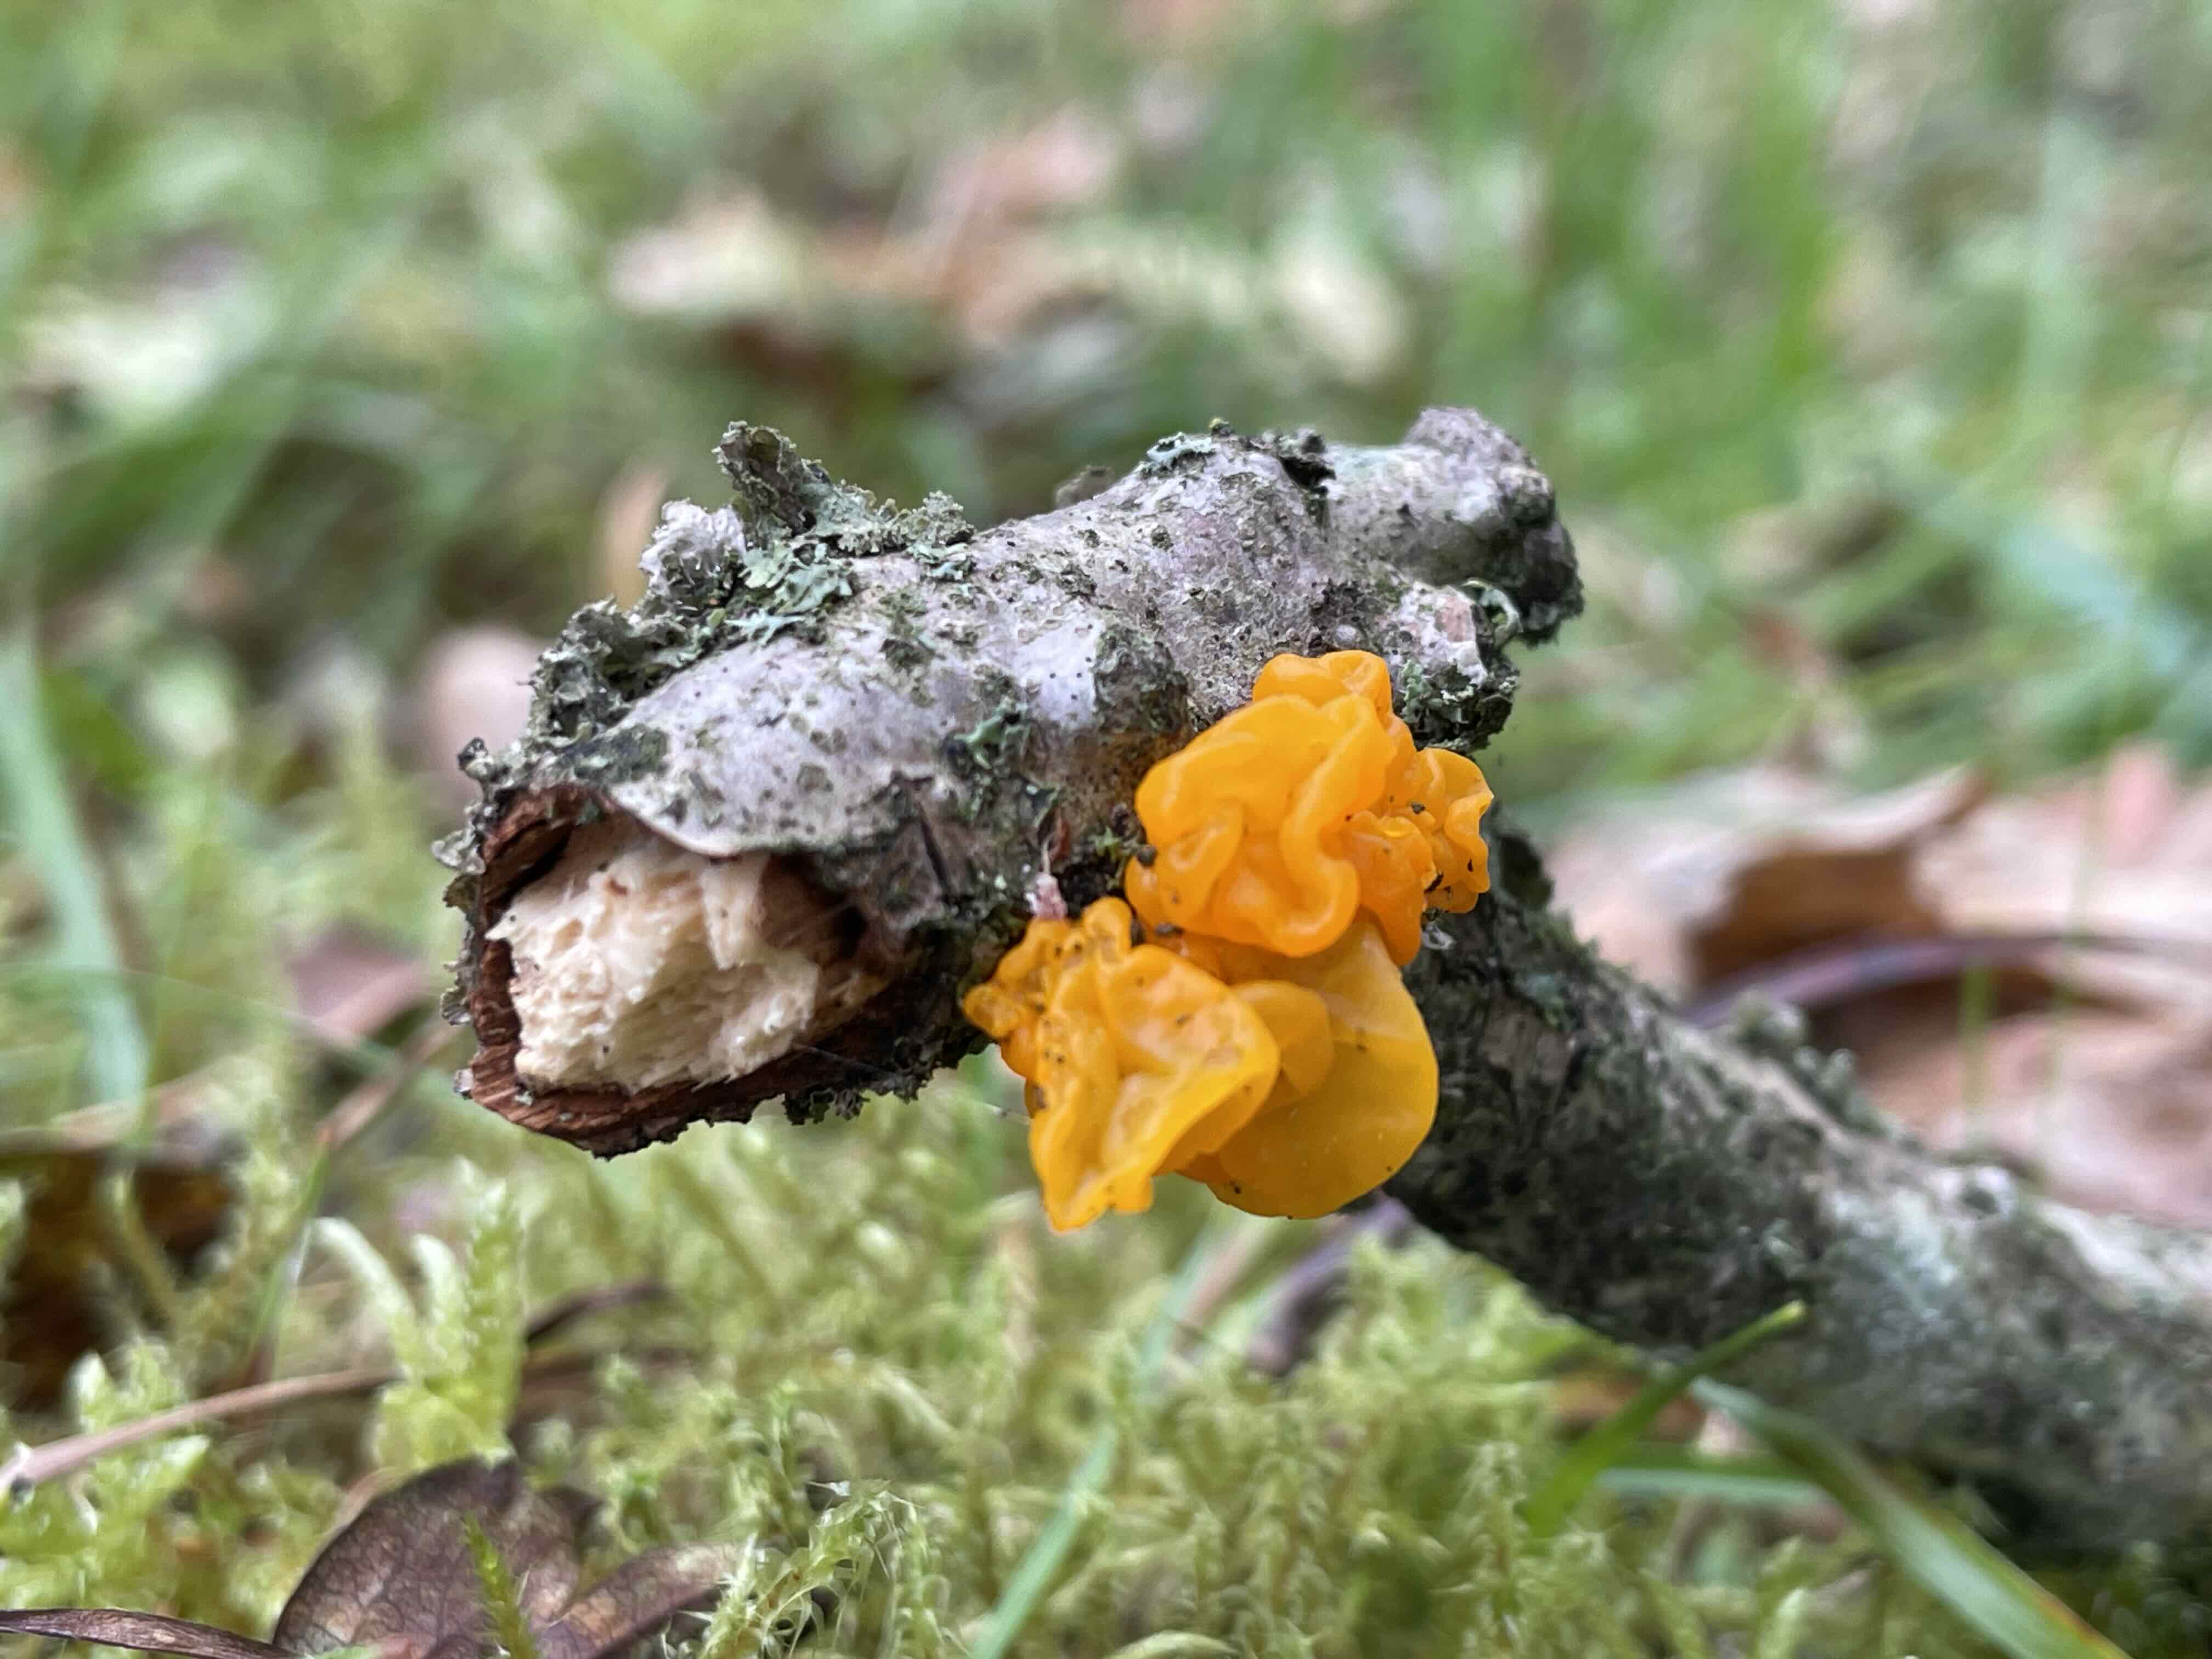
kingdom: Fungi
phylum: Basidiomycota
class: Tremellomycetes
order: Tremellales
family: Tremellaceae
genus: Tremella
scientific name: Tremella mesenterica
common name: gul bævresvamp
